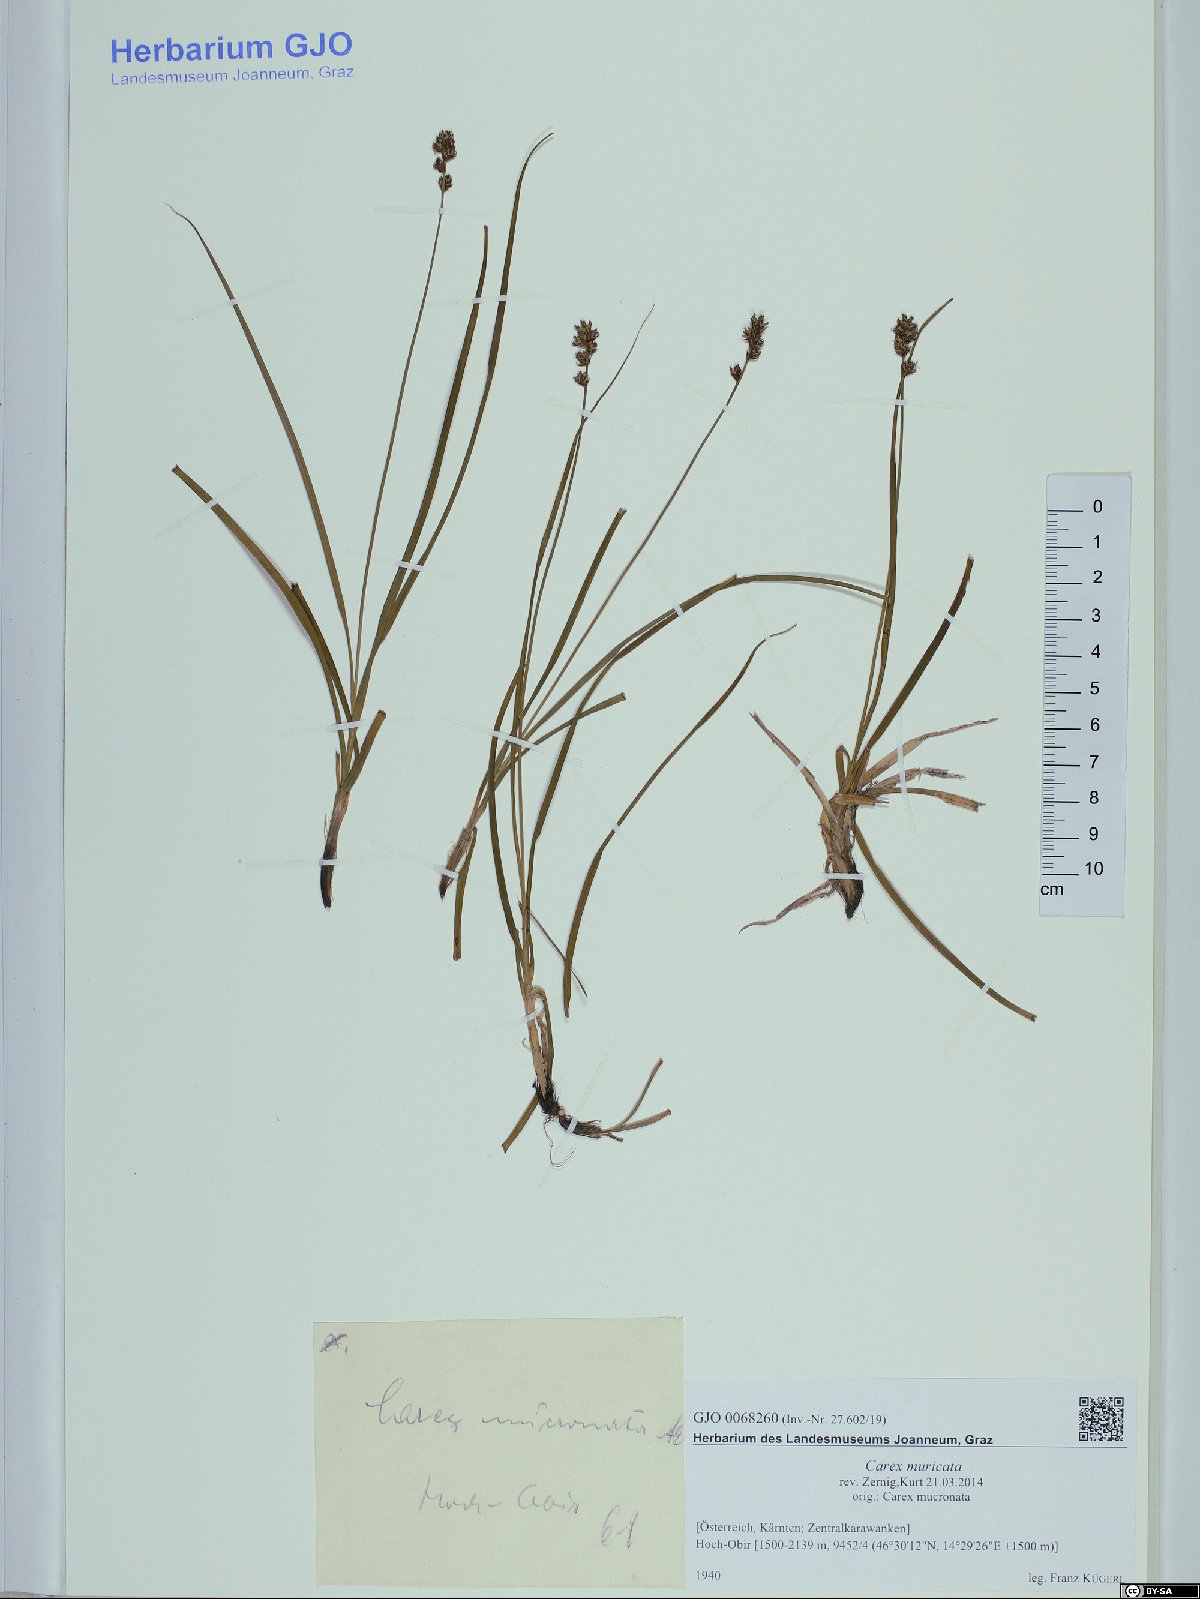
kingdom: Plantae
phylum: Tracheophyta
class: Liliopsida
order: Poales
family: Cyperaceae
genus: Carex
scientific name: Carex muricata
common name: Rough sedge
